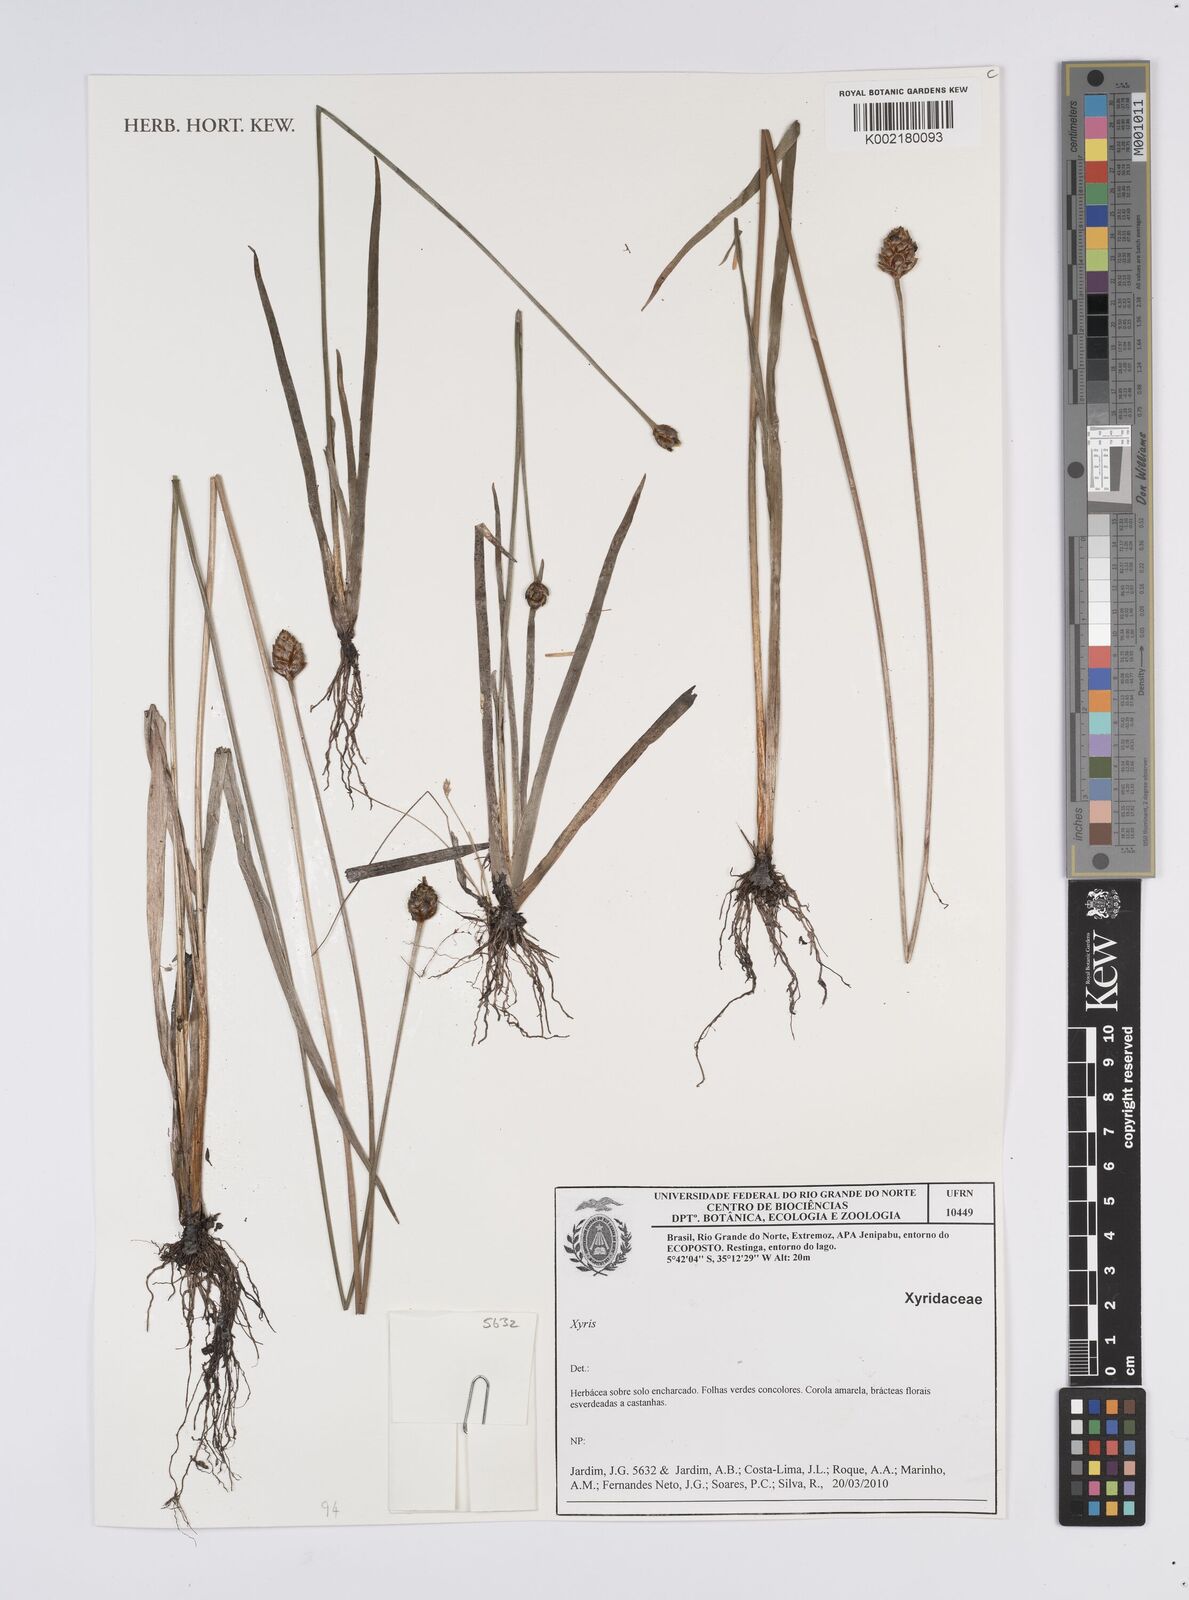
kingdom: Plantae
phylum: Tracheophyta
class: Liliopsida
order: Poales
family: Xyridaceae
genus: Xyris
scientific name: Xyris
